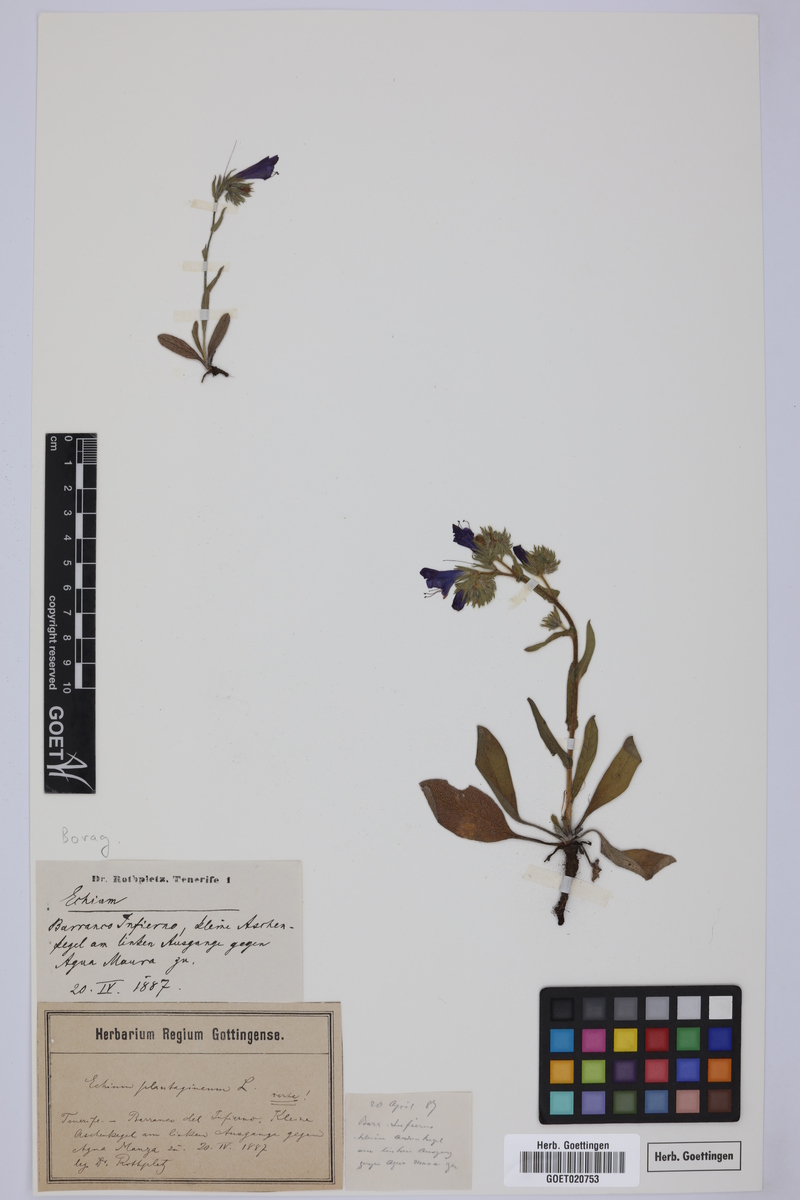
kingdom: Plantae
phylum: Tracheophyta
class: Magnoliopsida
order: Boraginales
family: Boraginaceae
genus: Echium
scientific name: Echium plantagineum
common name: Purple viper's-bugloss
